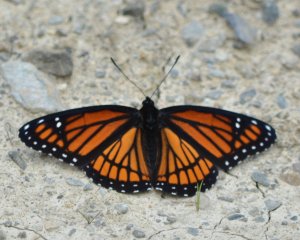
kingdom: Animalia
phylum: Arthropoda
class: Insecta
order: Lepidoptera
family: Nymphalidae
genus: Limenitis
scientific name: Limenitis archippus
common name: Viceroy
